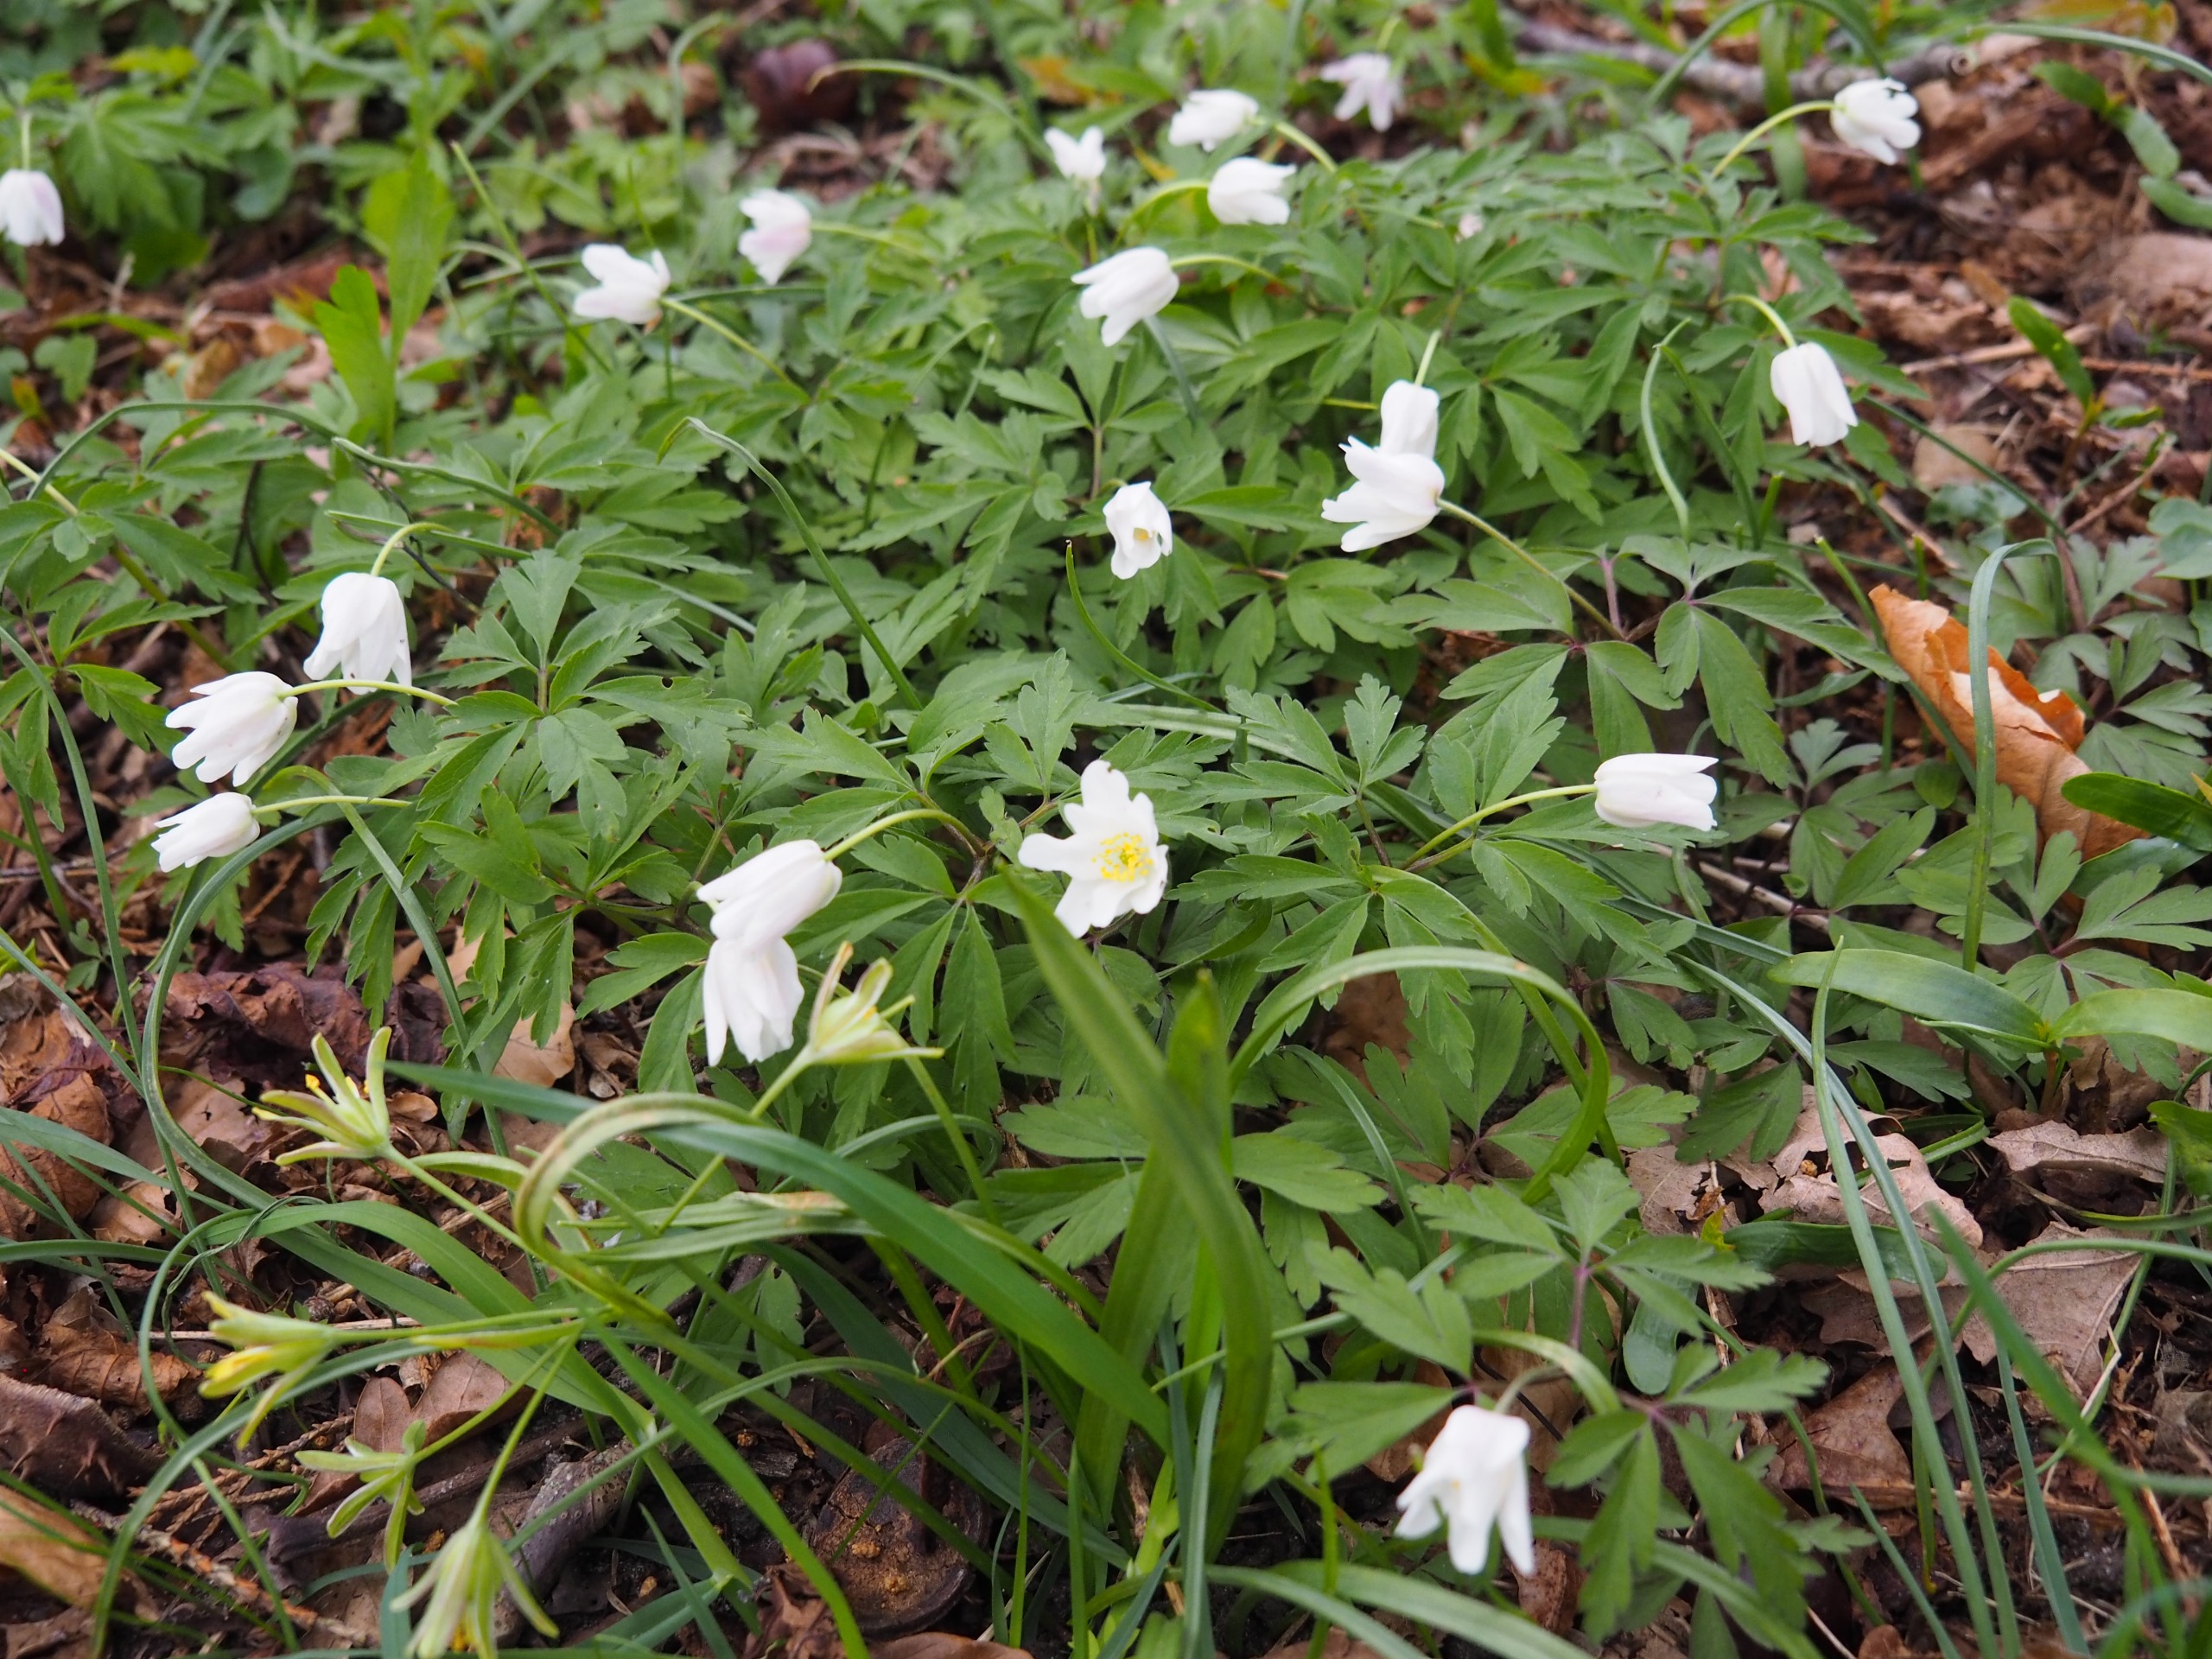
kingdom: Plantae
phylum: Tracheophyta
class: Magnoliopsida
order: Ranunculales
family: Ranunculaceae
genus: Anemone
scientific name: Anemone nemorosa
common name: Hvid anemone
